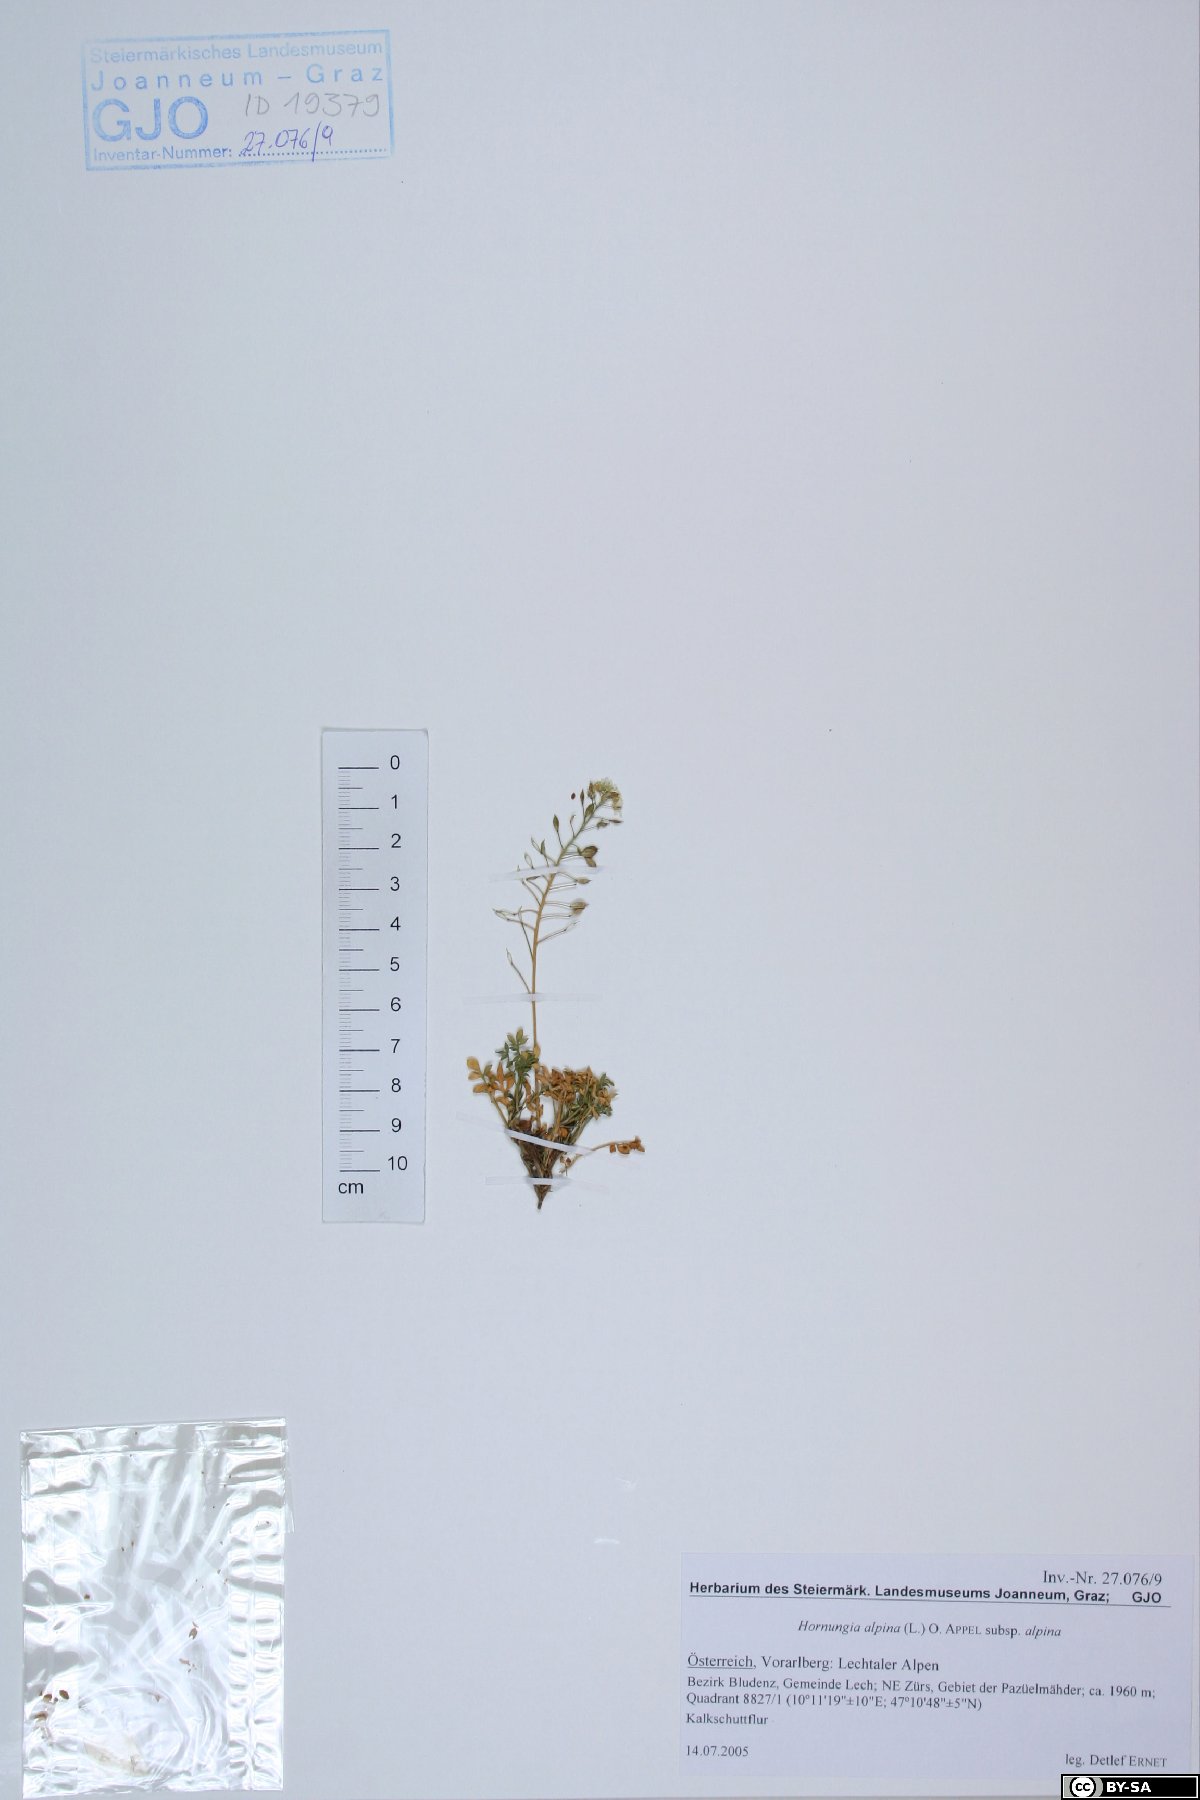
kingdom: Plantae
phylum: Tracheophyta
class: Magnoliopsida
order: Brassicales
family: Brassicaceae
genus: Hornungia
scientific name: Hornungia alpina
